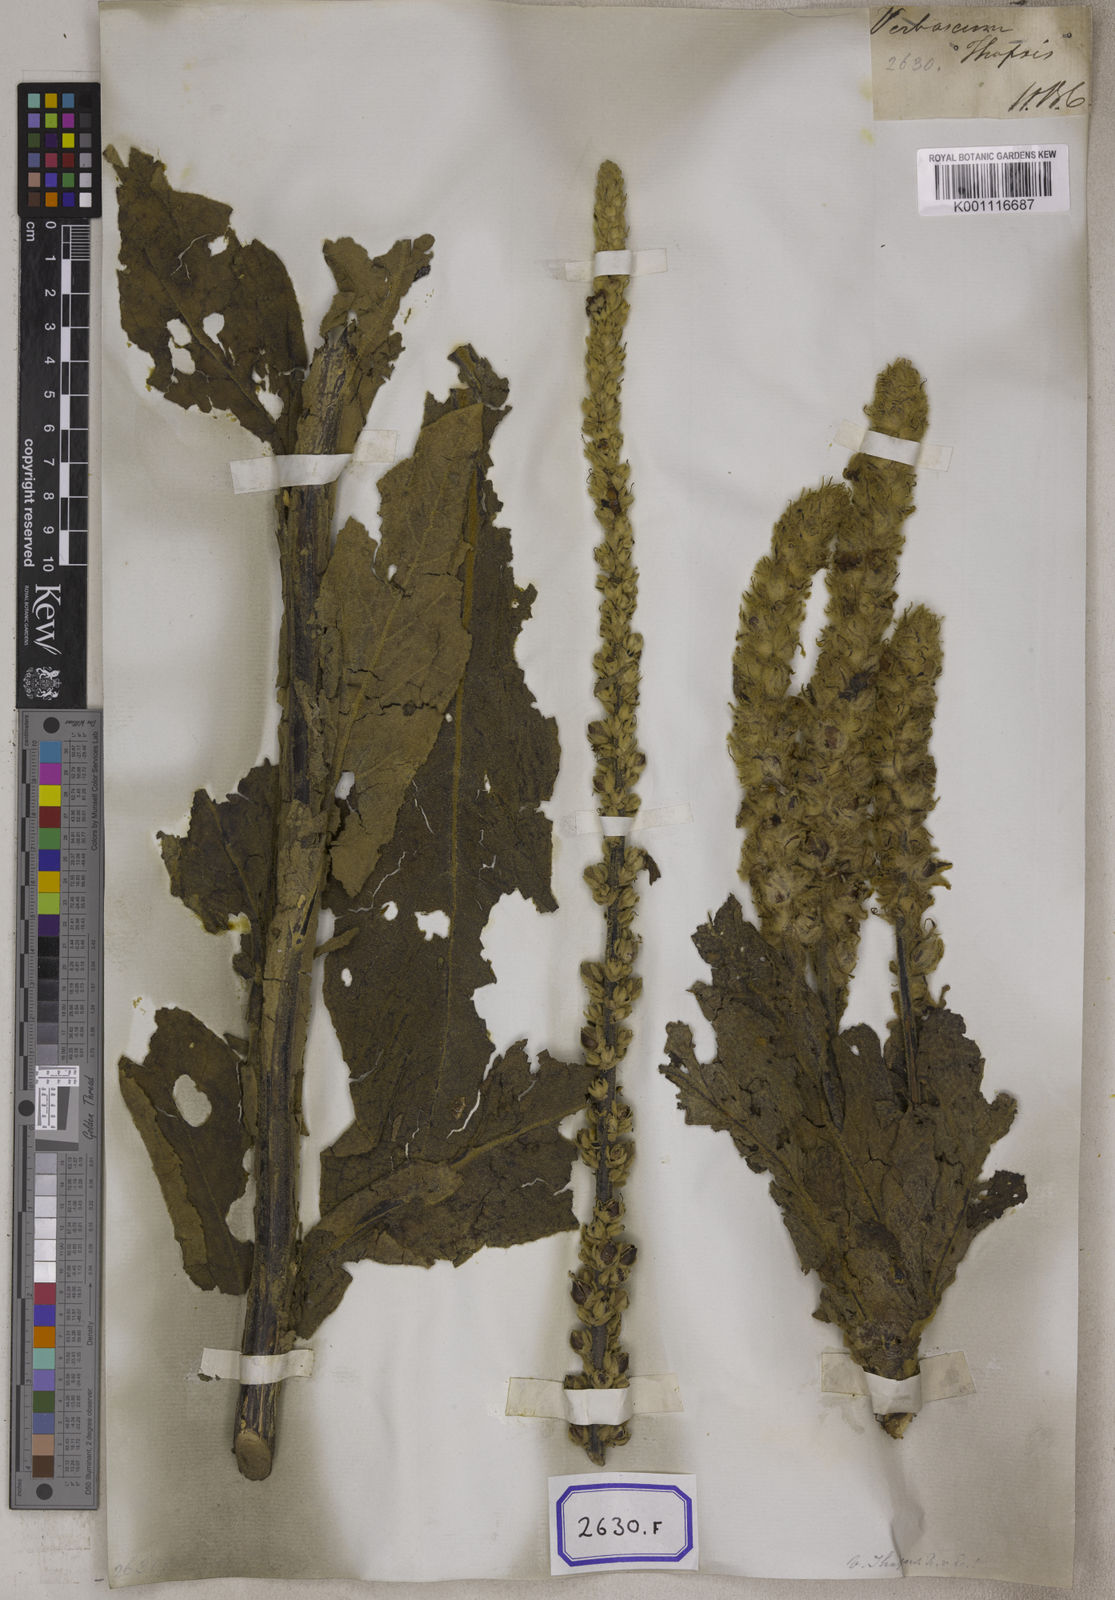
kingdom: Plantae
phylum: Tracheophyta
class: Magnoliopsida
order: Lamiales
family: Scrophulariaceae
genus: Verbascum
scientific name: Verbascum thapsus
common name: Common mullein
